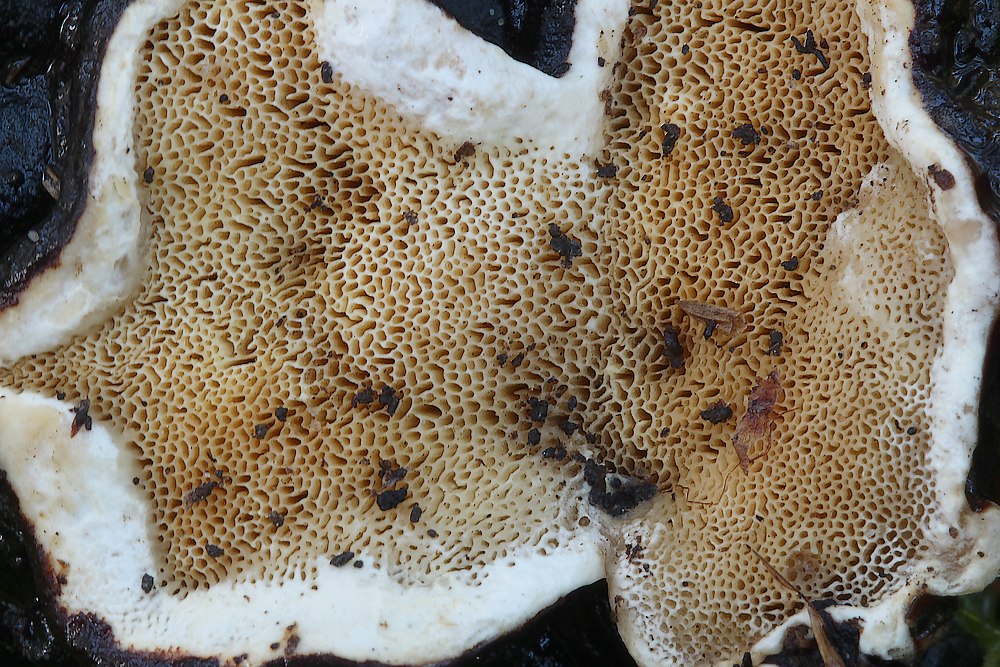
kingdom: Fungi
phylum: Basidiomycota
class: Agaricomycetes
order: Russulales
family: Bondarzewiaceae
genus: Heterobasidion
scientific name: Heterobasidion
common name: rodfordærver
